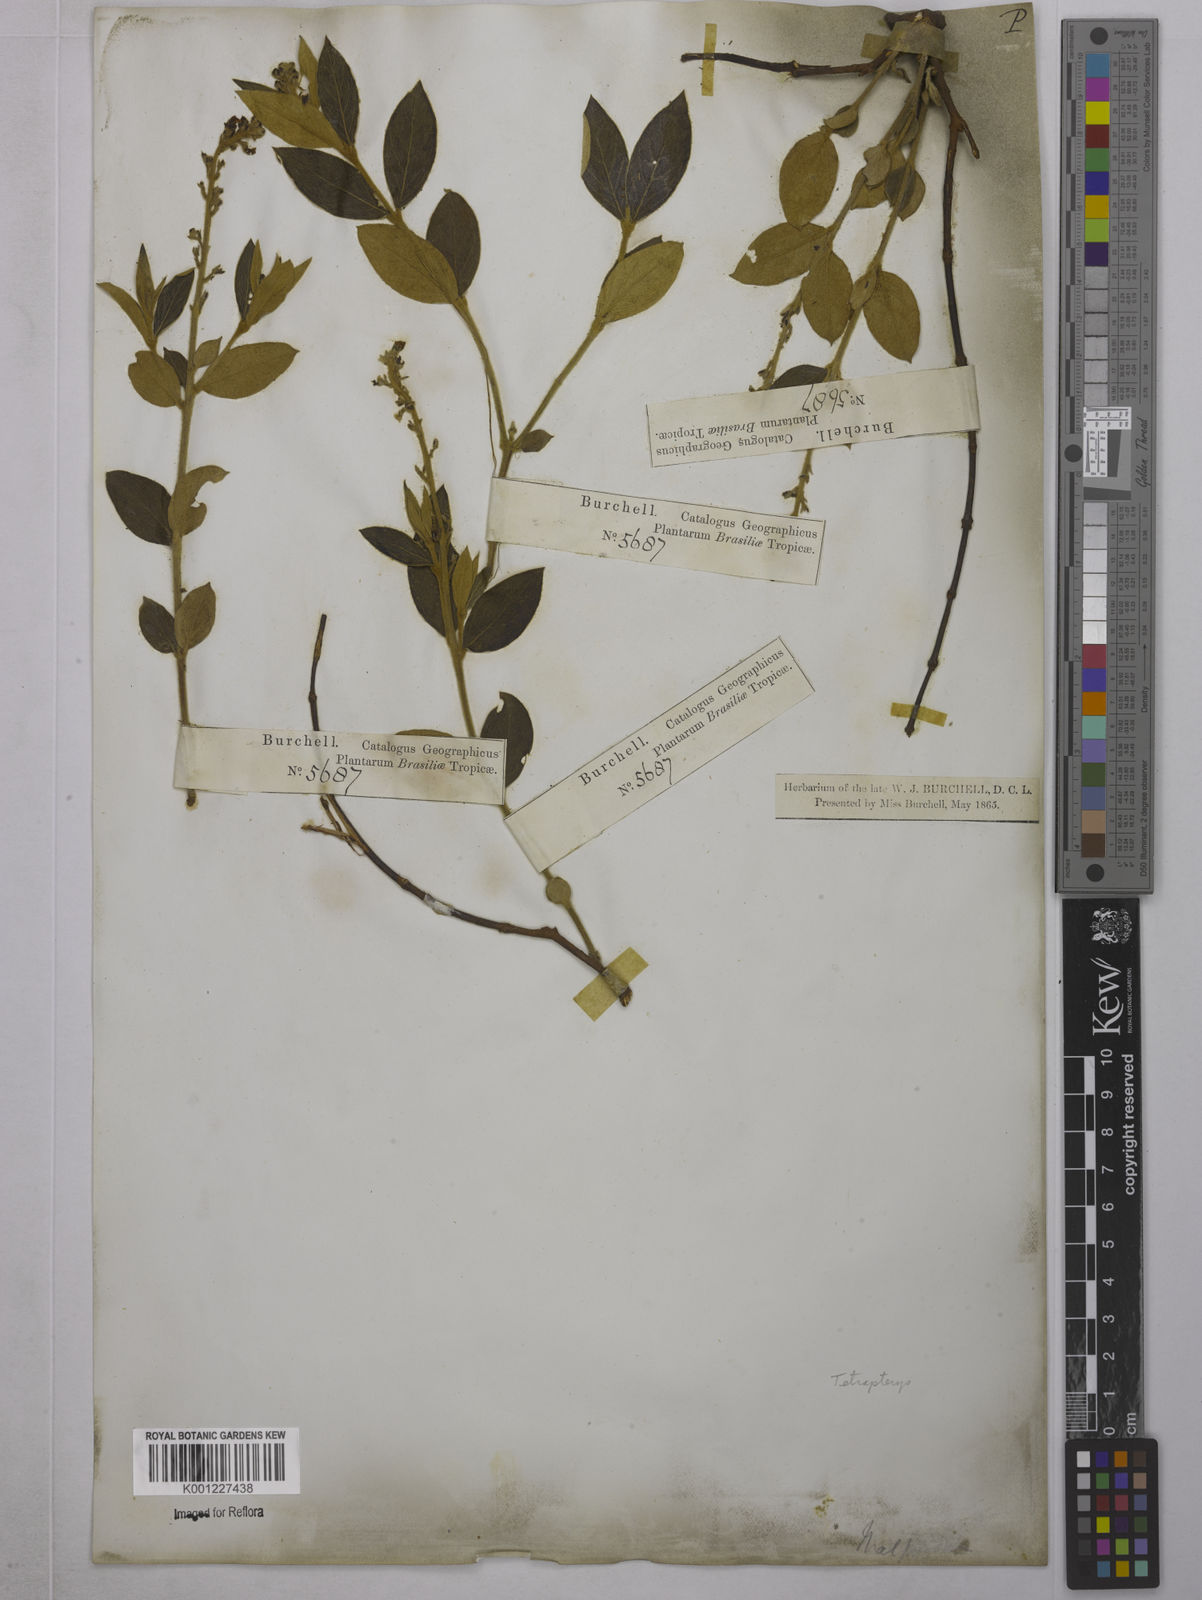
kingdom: Plantae
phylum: Tracheophyta
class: Magnoliopsida
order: Malpighiales
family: Malpighiaceae
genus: Tetrapterys
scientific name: Tetrapterys
